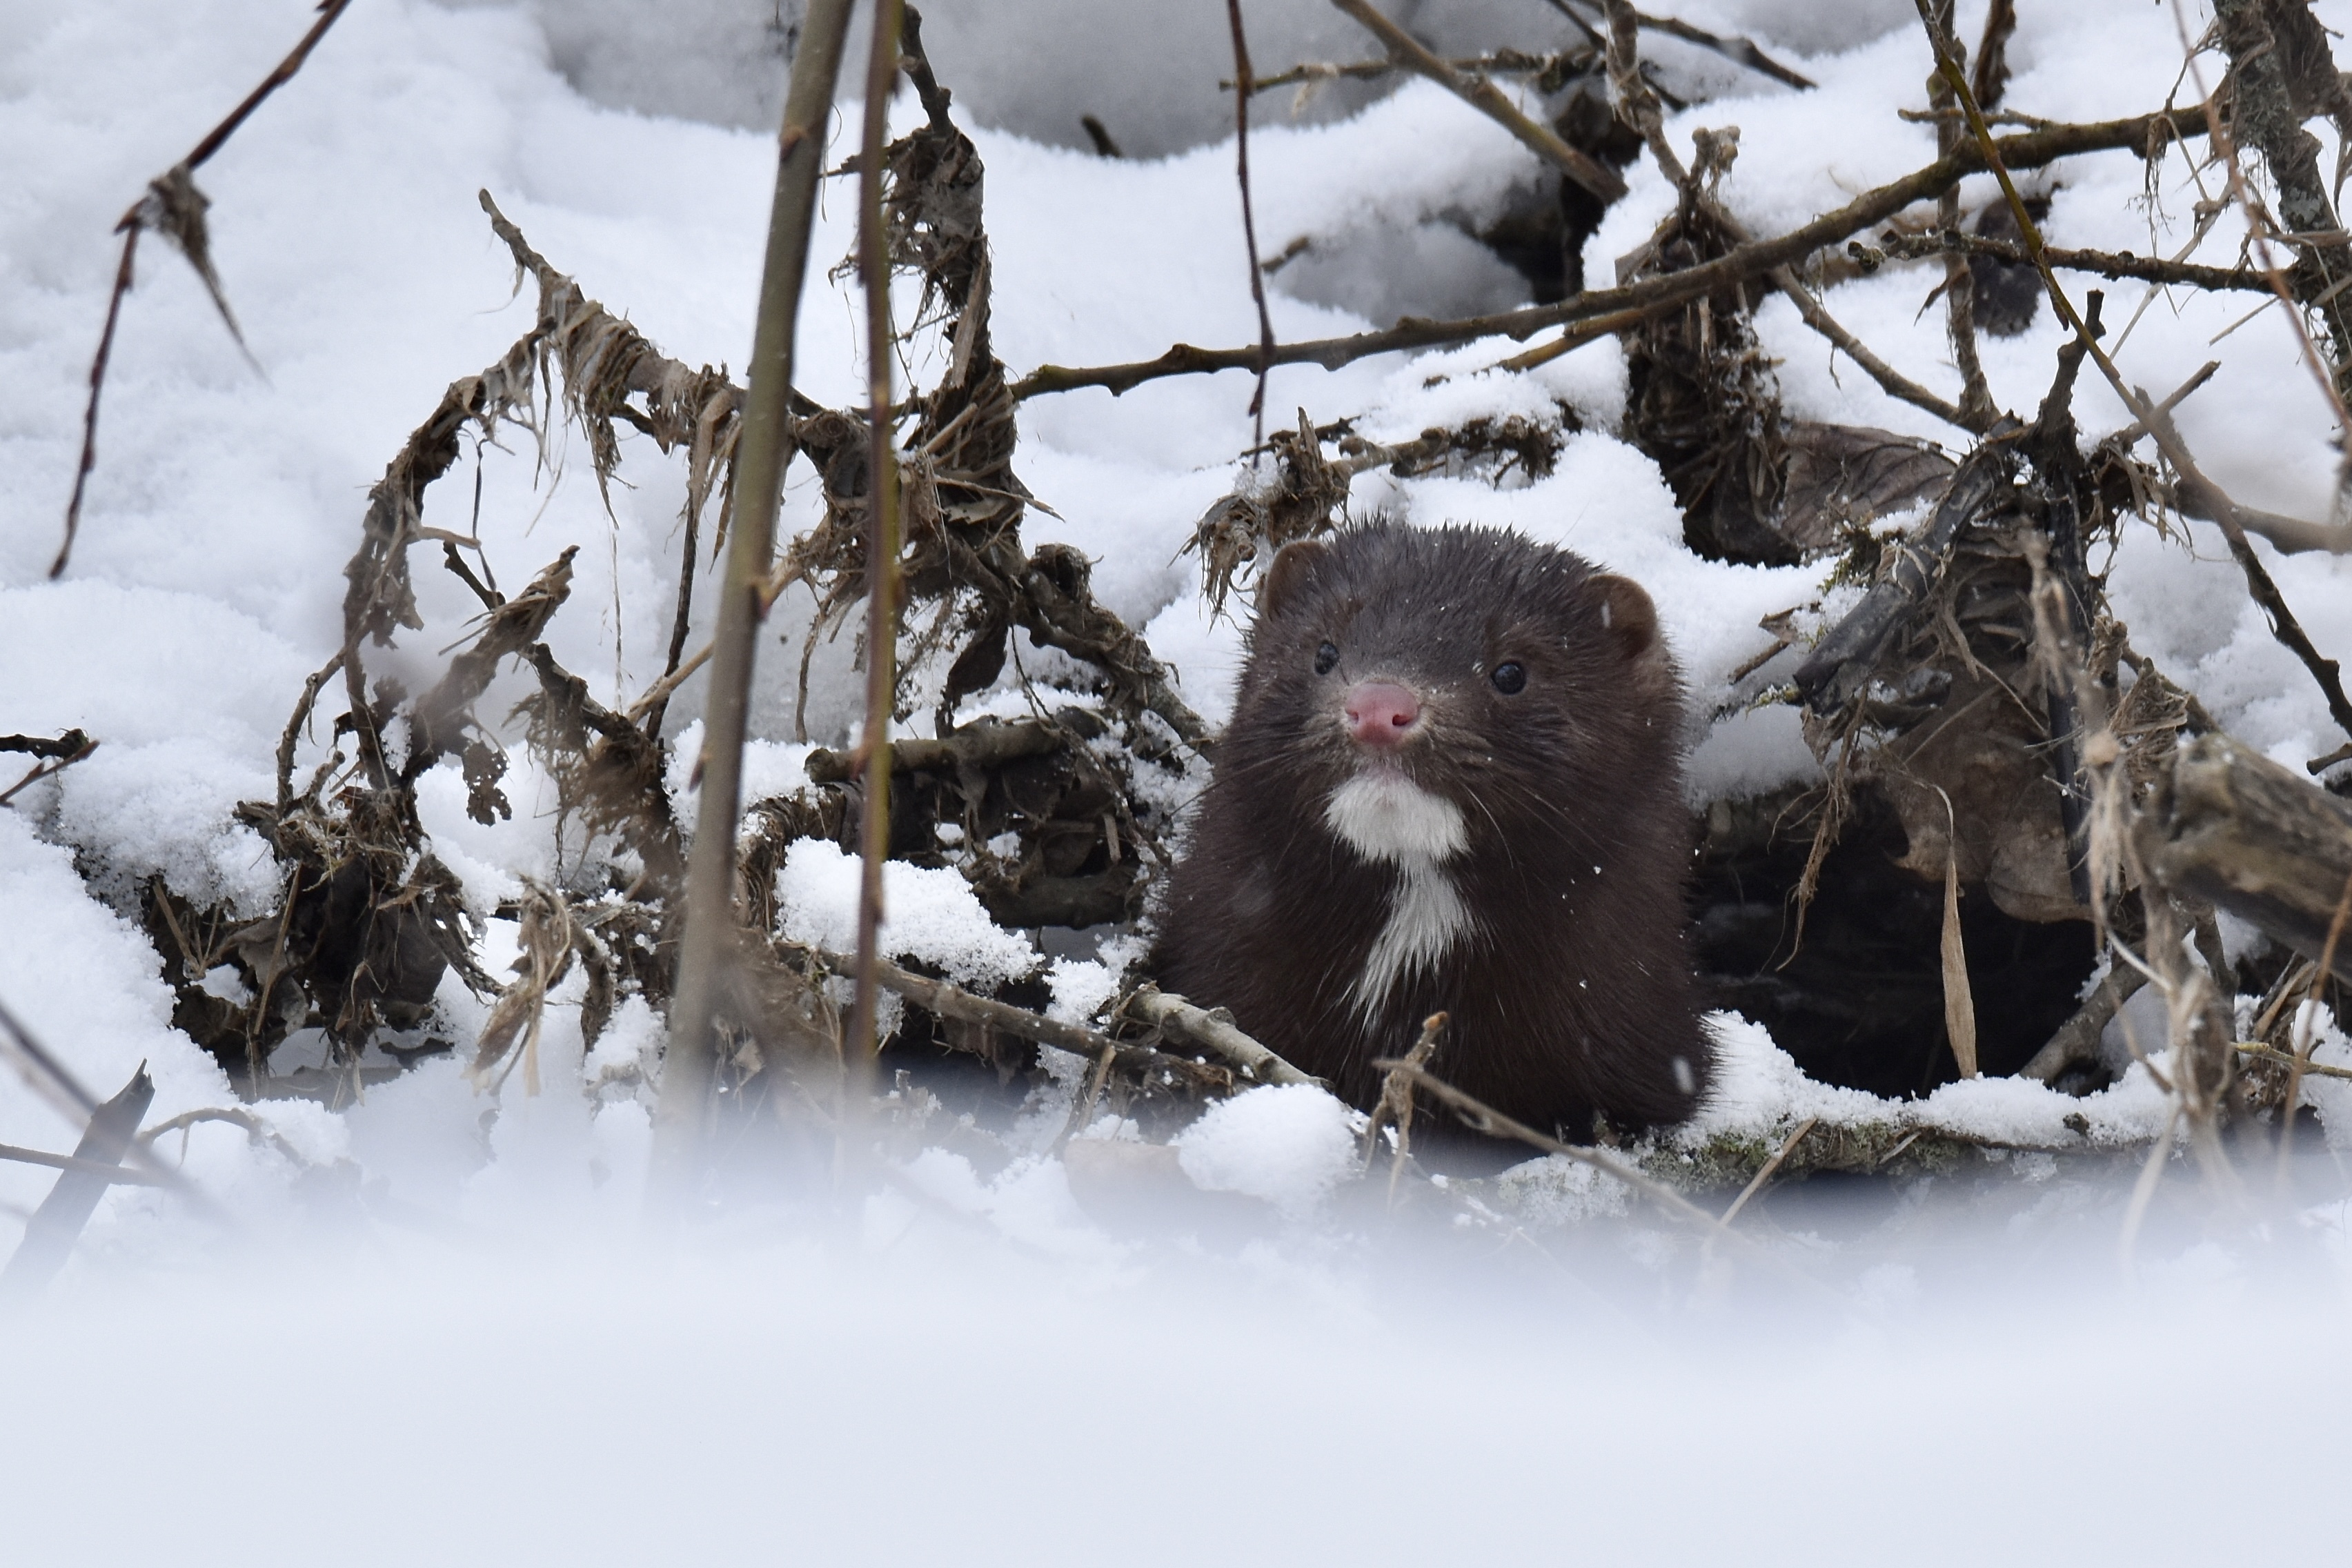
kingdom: Animalia
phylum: Chordata
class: Mammalia
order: Carnivora
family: Mustelidae
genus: Mustela
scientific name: Mustela
